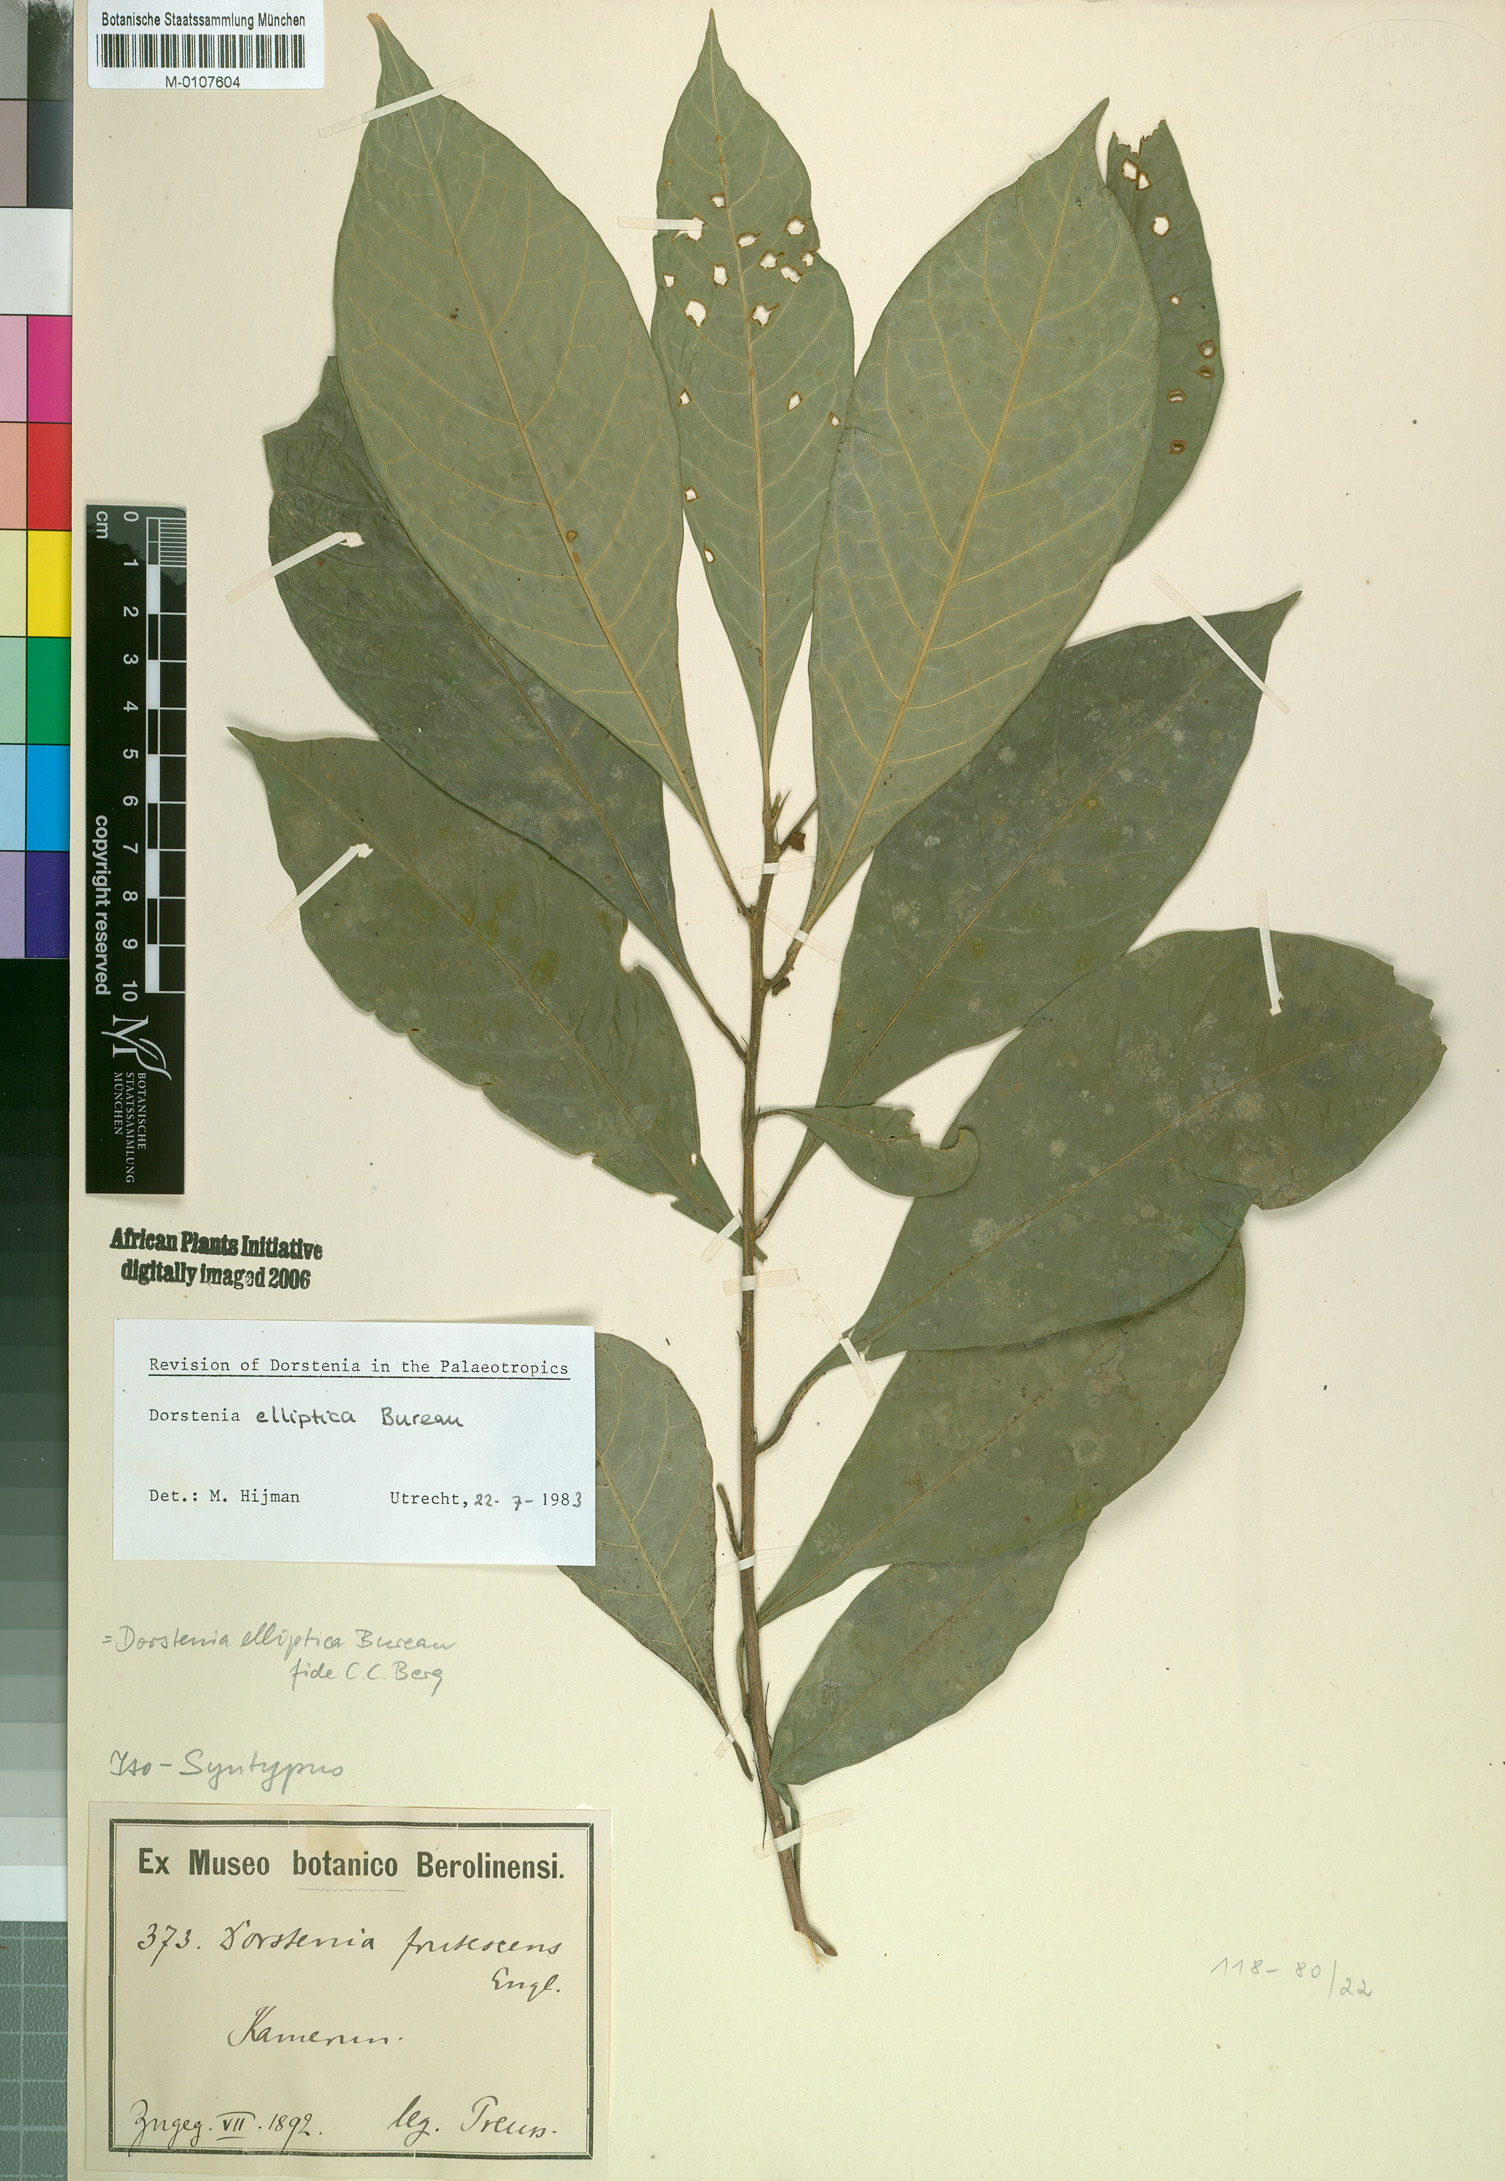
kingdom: Plantae
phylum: Tracheophyta
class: Magnoliopsida
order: Rosales
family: Moraceae
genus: Dorstenia
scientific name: Dorstenia elliptica
